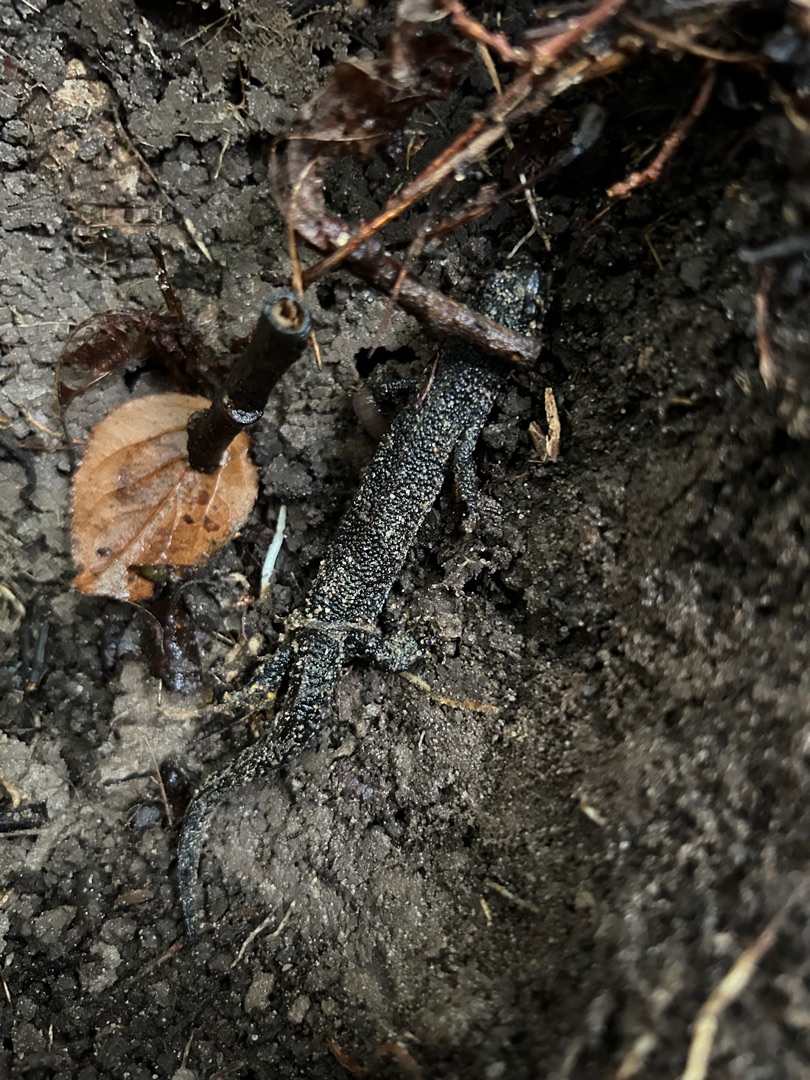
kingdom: Animalia
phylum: Chordata
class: Amphibia
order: Caudata
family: Salamandridae
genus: Triturus
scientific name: Triturus cristatus
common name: Stor vandsalamander
